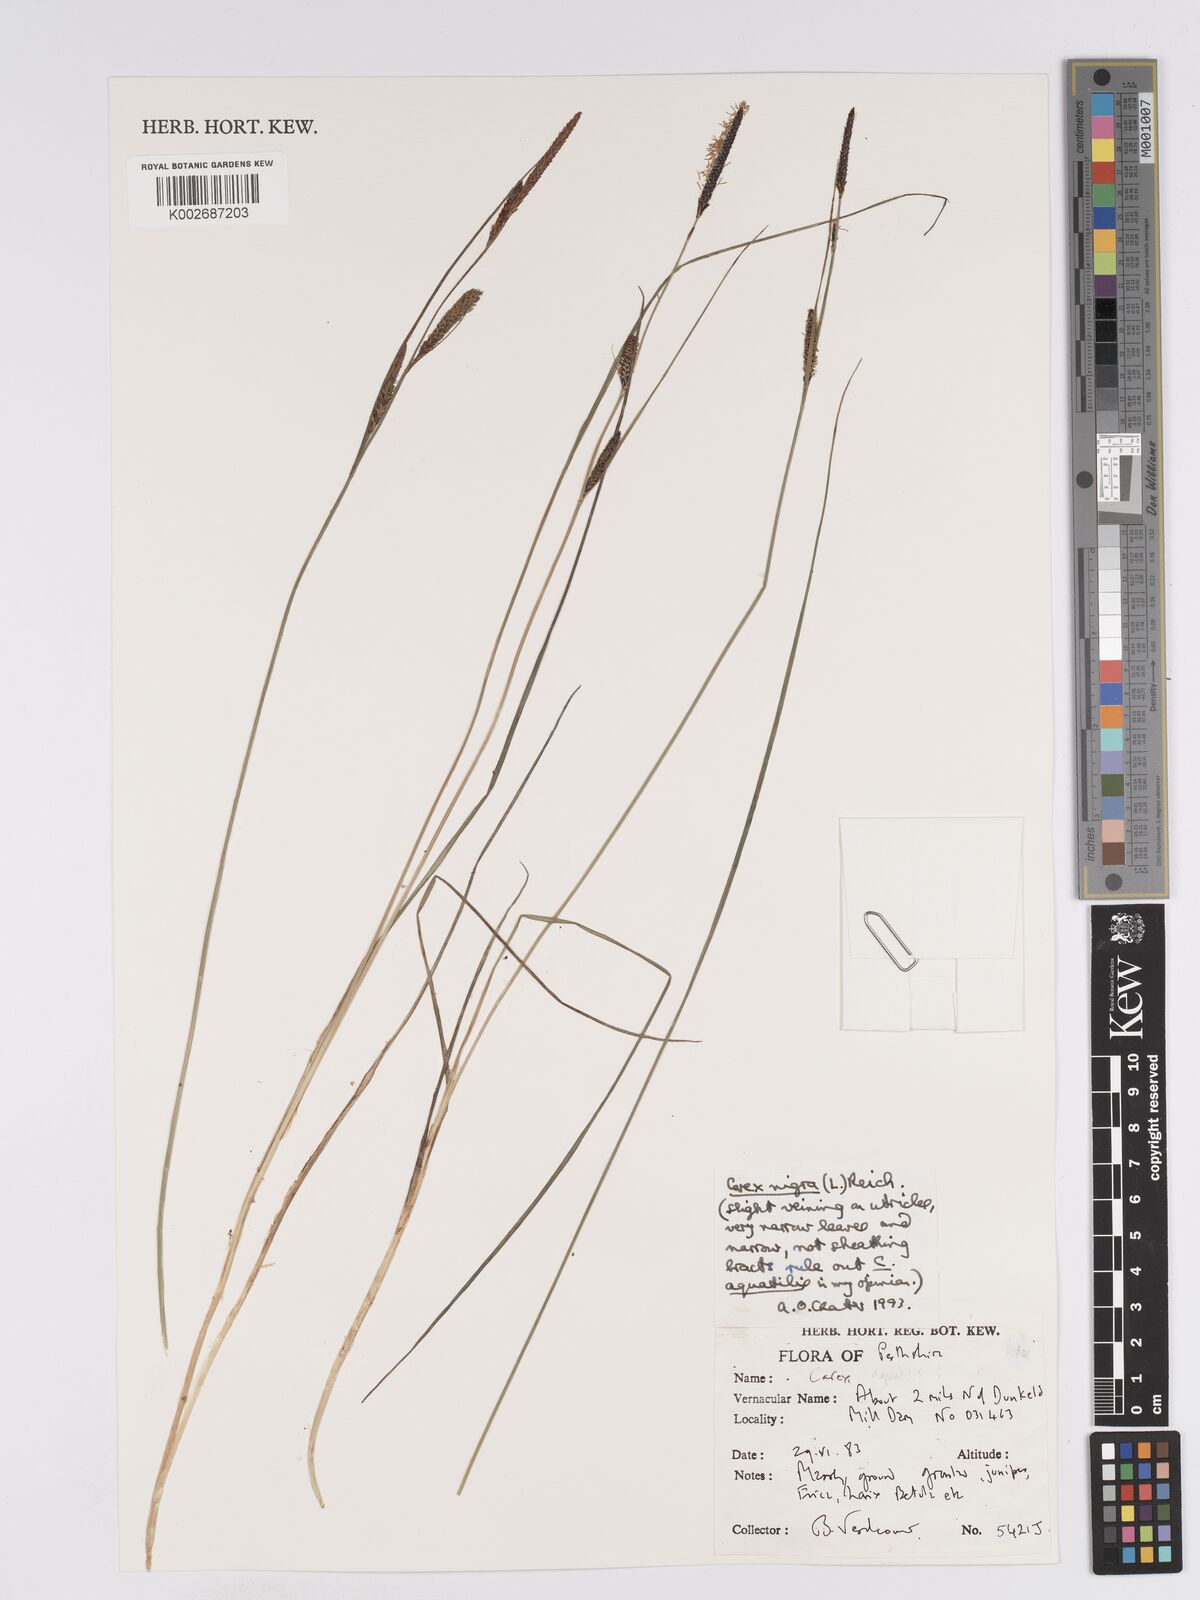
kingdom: Plantae
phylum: Tracheophyta
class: Liliopsida
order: Poales
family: Cyperaceae
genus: Carex
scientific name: Carex nigra
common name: Common sedge
